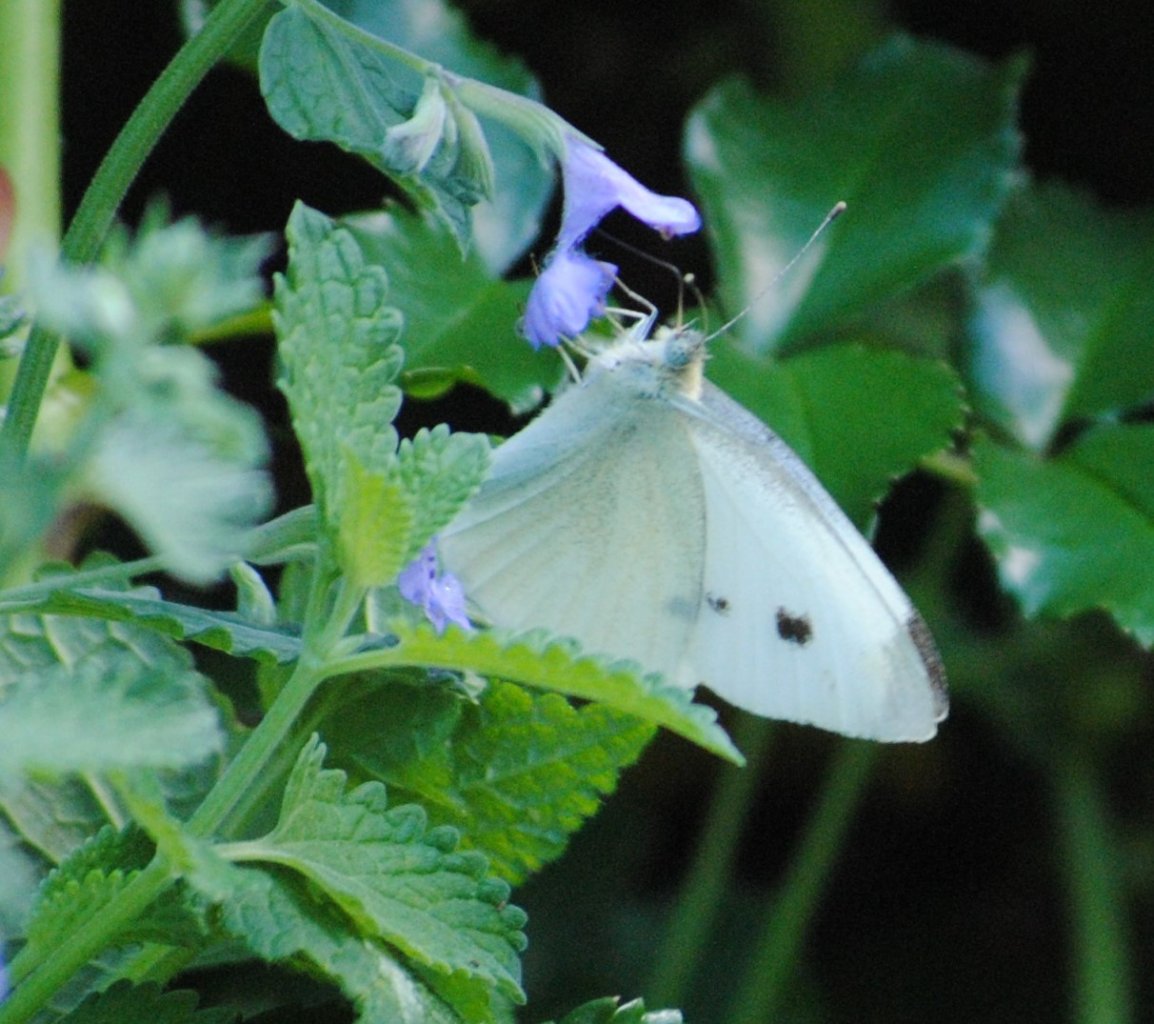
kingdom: Animalia
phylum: Arthropoda
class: Insecta
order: Lepidoptera
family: Pieridae
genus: Pieris
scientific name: Pieris rapae
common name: Cabbage White
